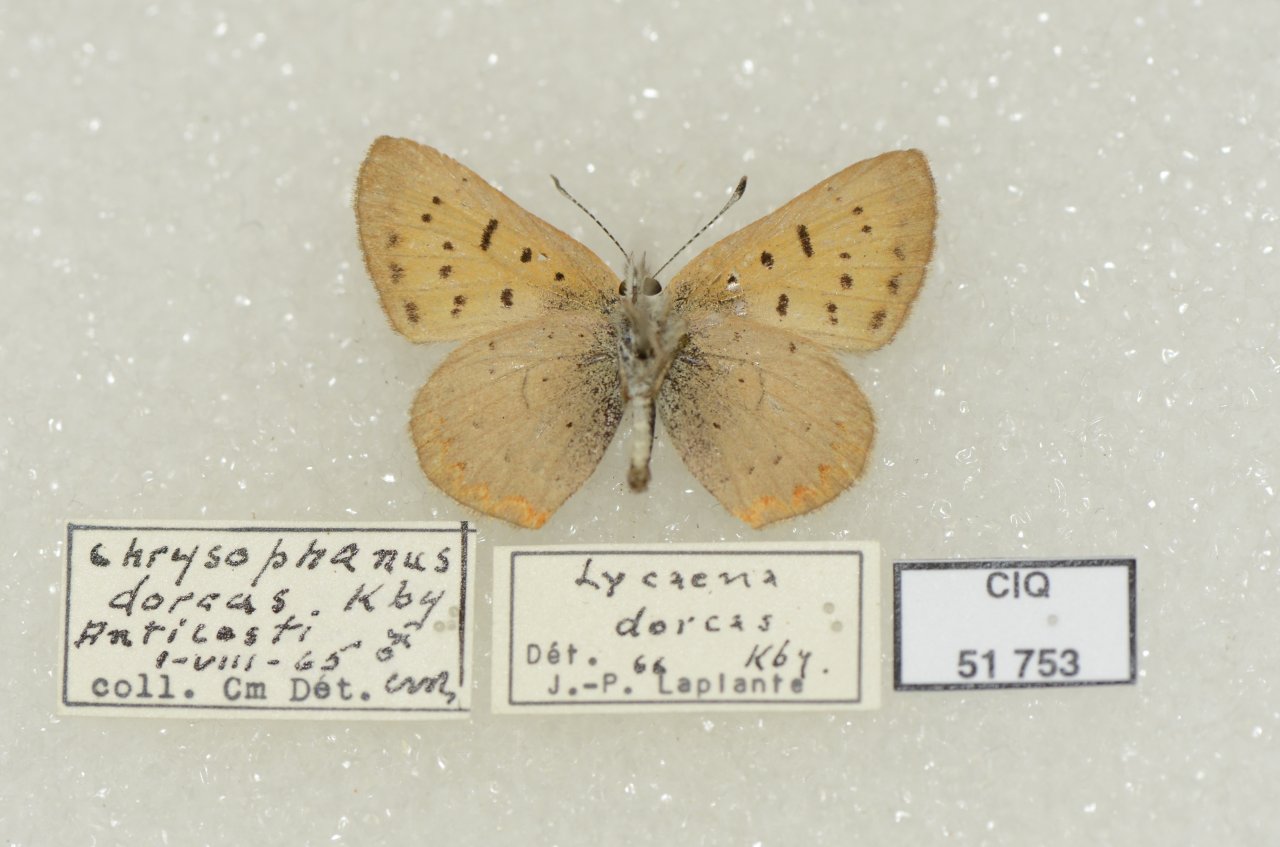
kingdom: Animalia
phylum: Arthropoda
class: Insecta
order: Lepidoptera
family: Lycaenidae
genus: Epidemia
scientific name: Epidemia dorcas
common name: Dorcas Copper
